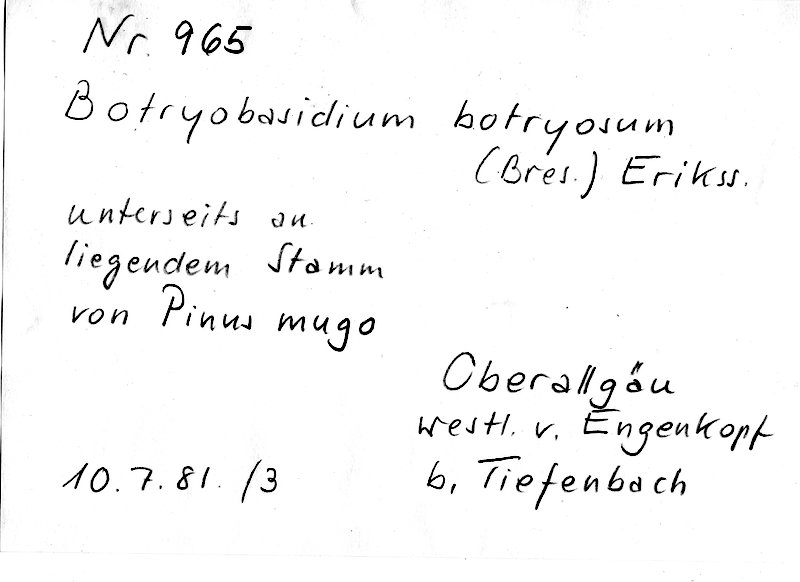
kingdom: Fungi
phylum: Basidiomycota
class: Agaricomycetes
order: Cantharellales
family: Botryobasidiaceae
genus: Botryobasidium
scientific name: Botryobasidium vagum
